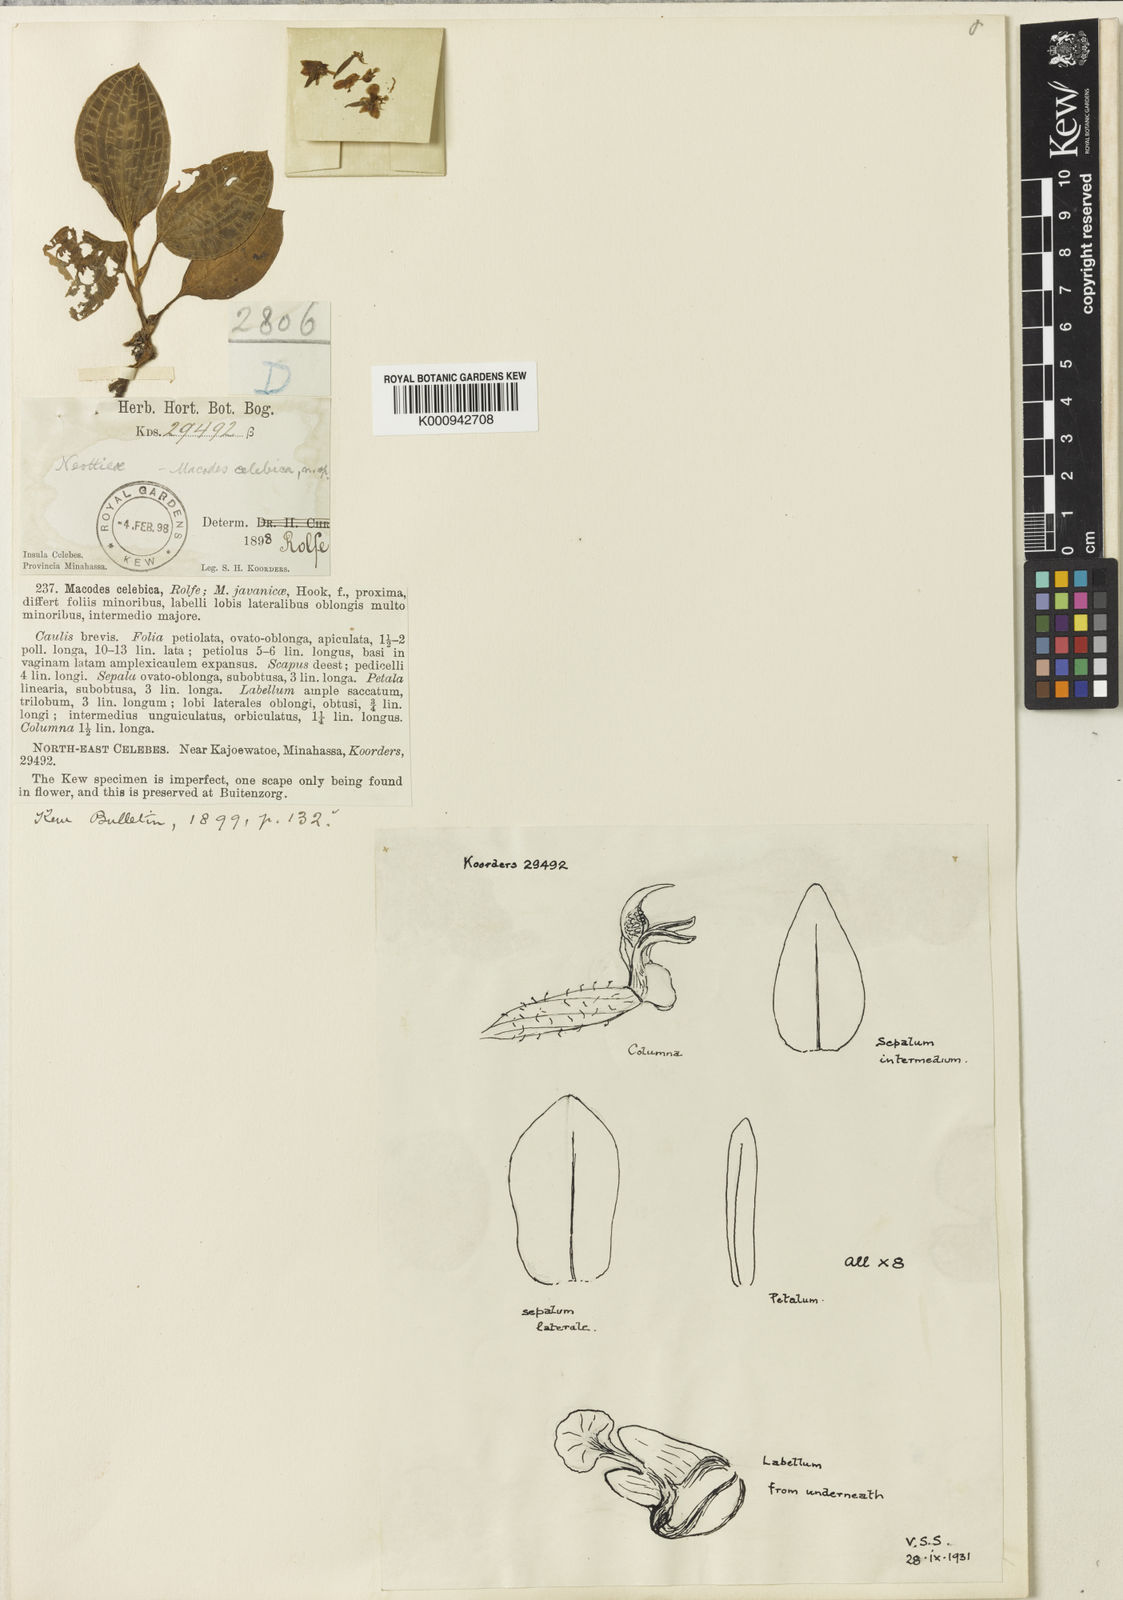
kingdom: Plantae
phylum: Tracheophyta
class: Liliopsida
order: Asparagales
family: Orchidaceae
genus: Macodes
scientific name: Macodes celebica
